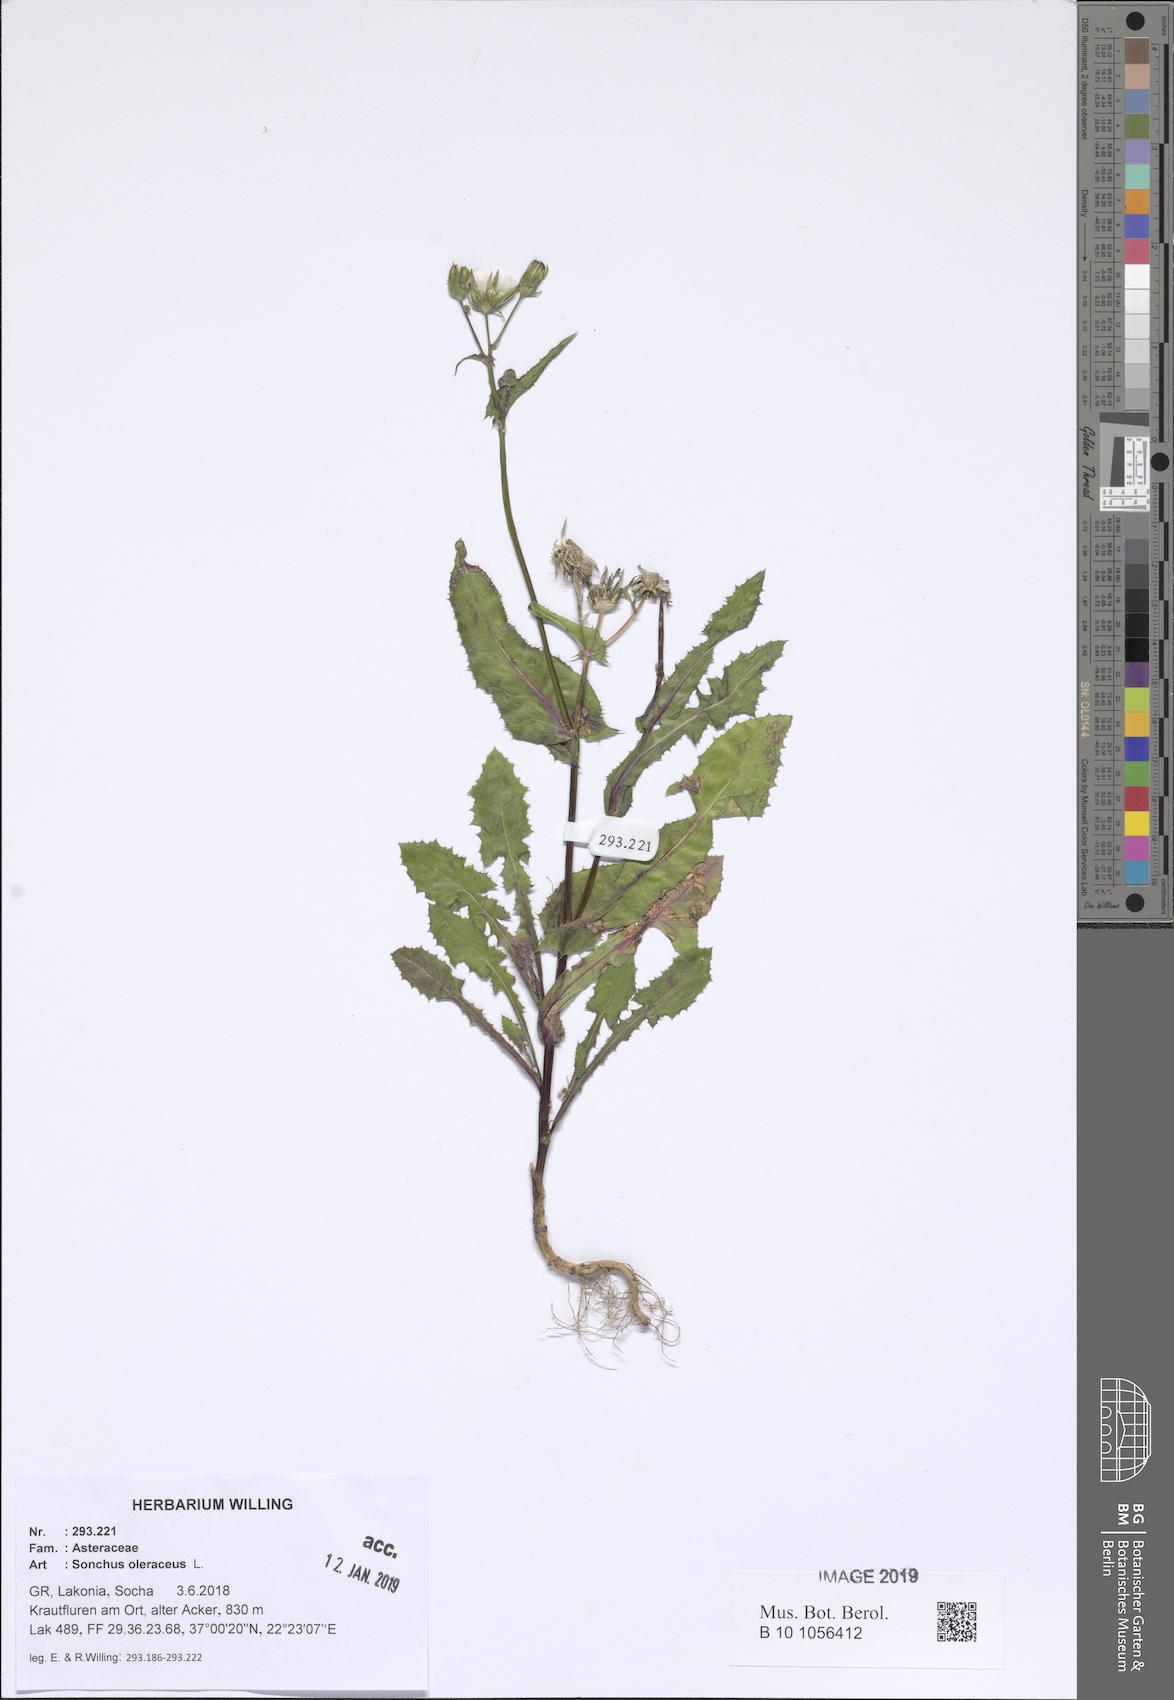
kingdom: Plantae
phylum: Tracheophyta
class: Magnoliopsida
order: Asterales
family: Asteraceae
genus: Sonchus
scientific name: Sonchus oleraceus
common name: Common sowthistle
